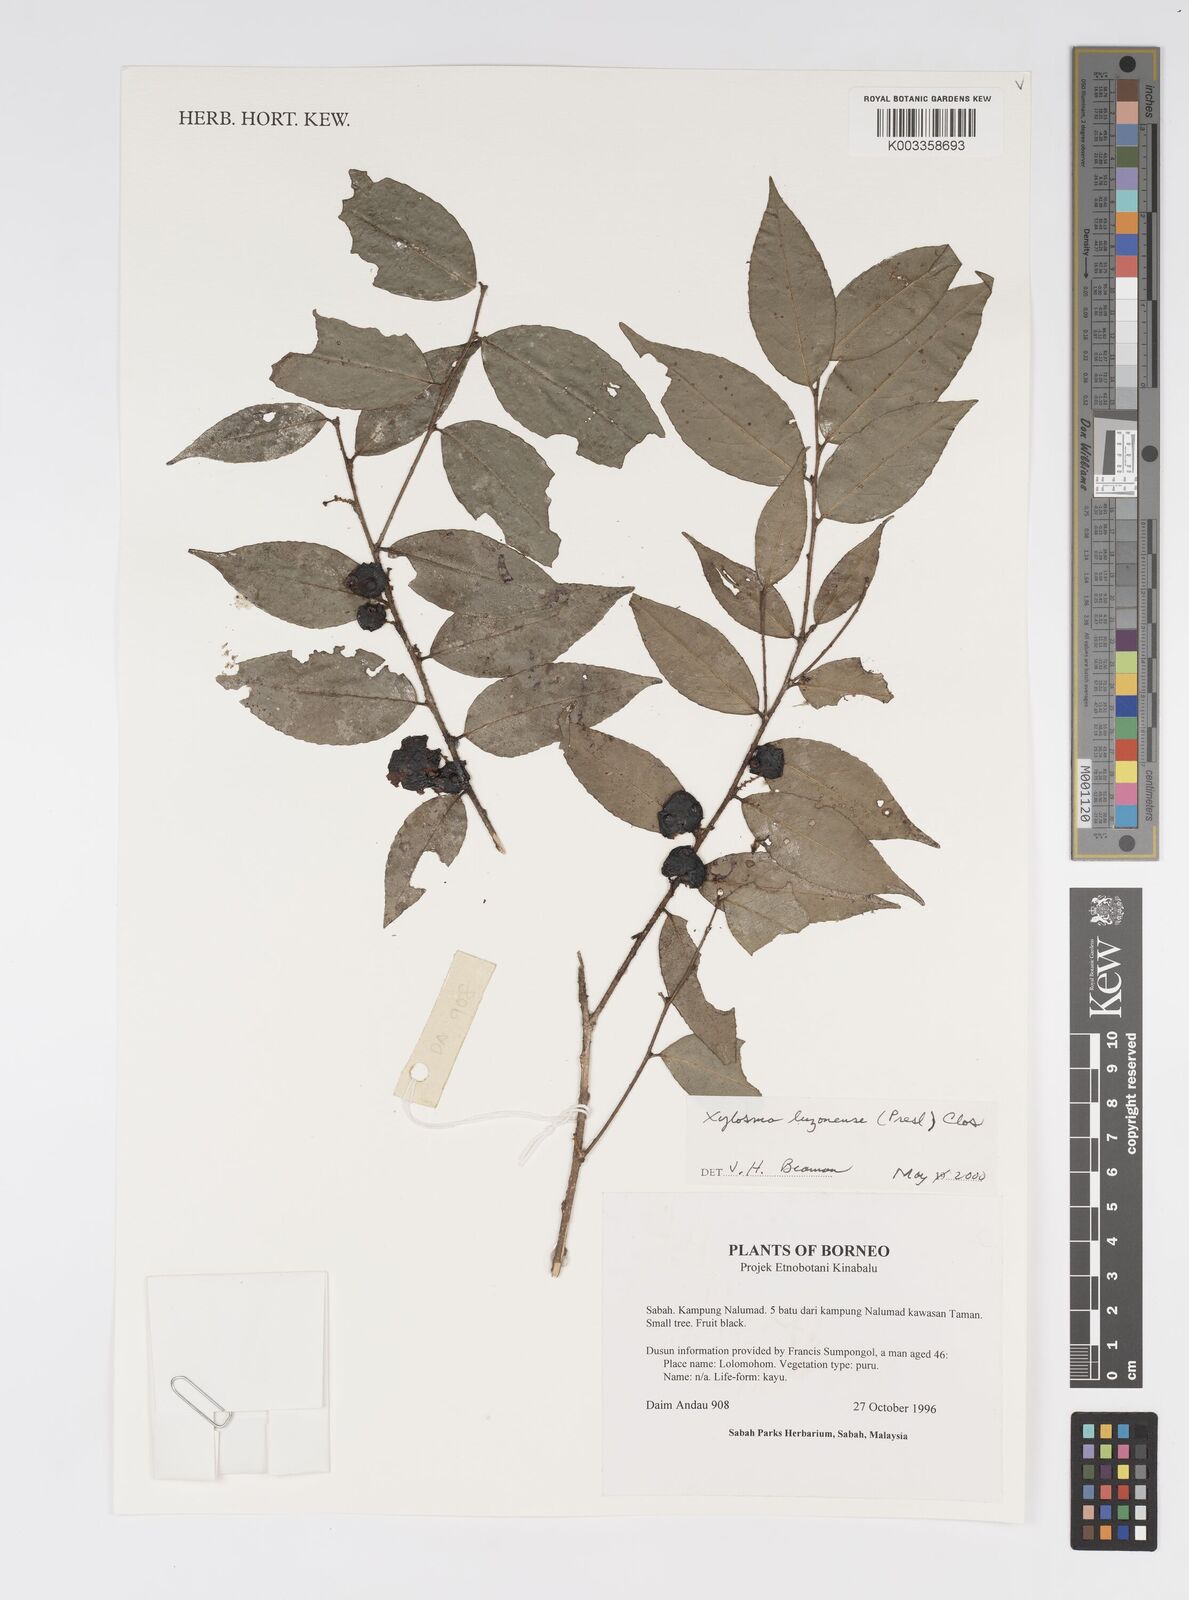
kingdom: Plantae
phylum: Tracheophyta
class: Magnoliopsida
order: Malpighiales
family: Salicaceae
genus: Xylosma
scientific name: Xylosma luzonensis
